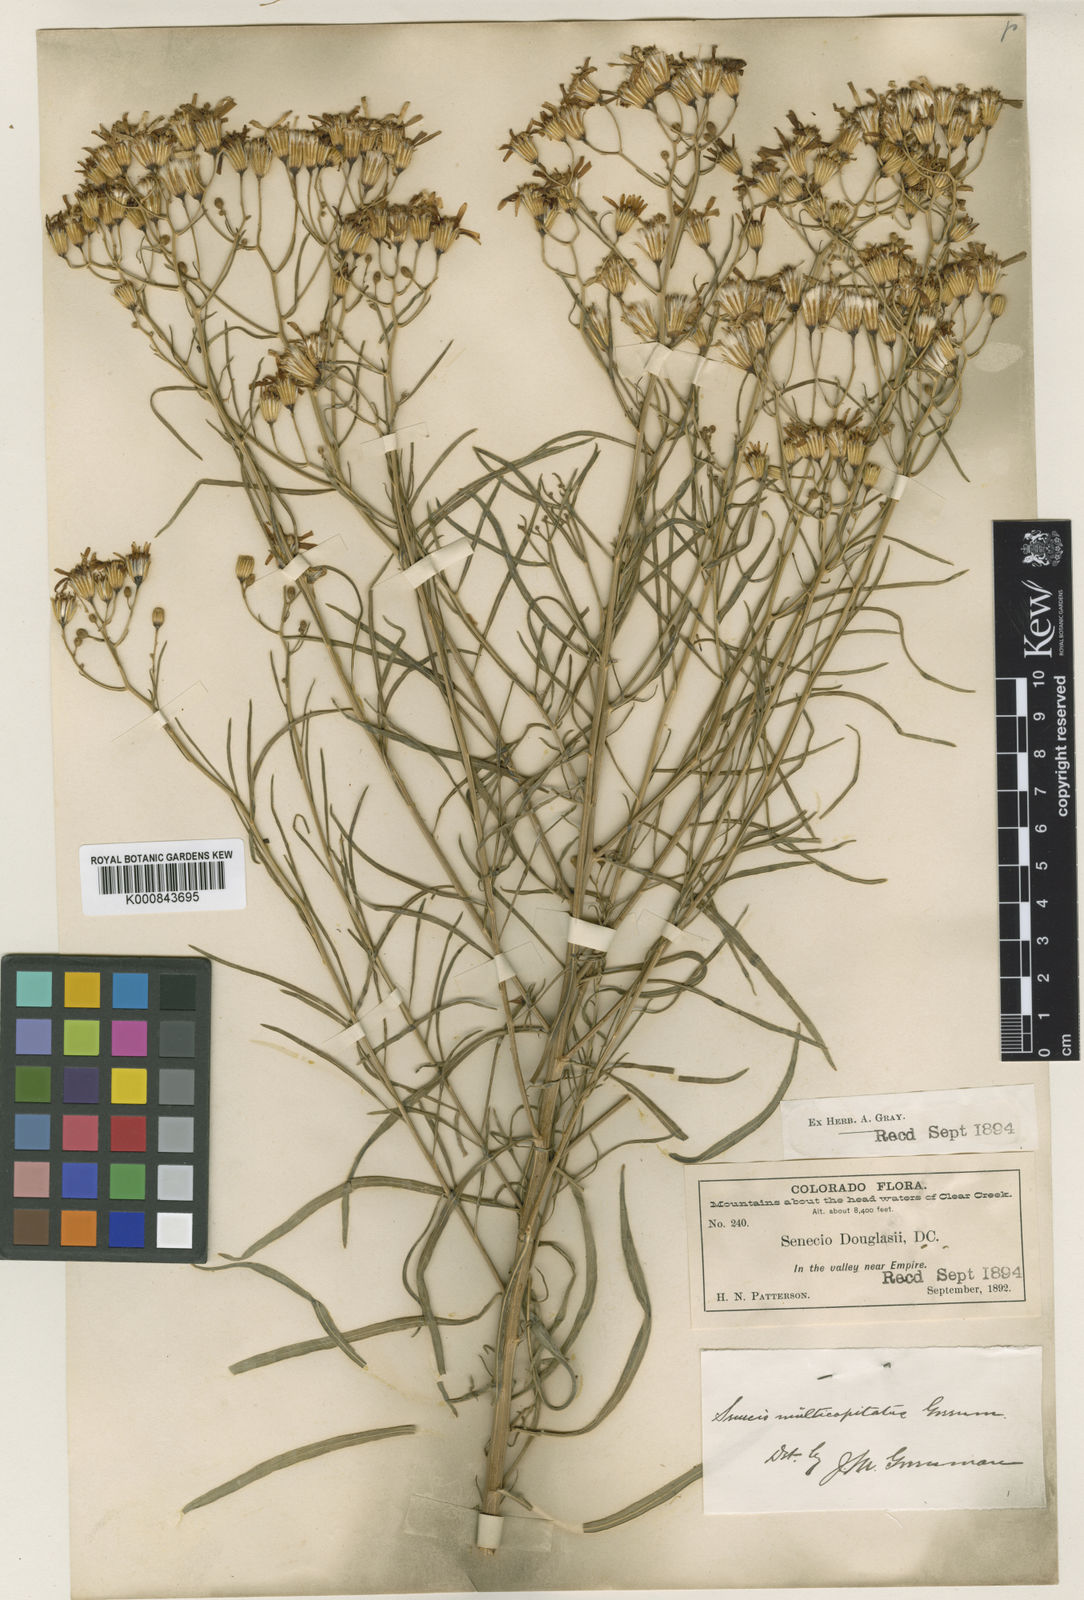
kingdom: Plantae
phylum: Tracheophyta
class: Magnoliopsida
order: Asterales
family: Asteraceae
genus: Senecio
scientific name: Senecio spartioides
